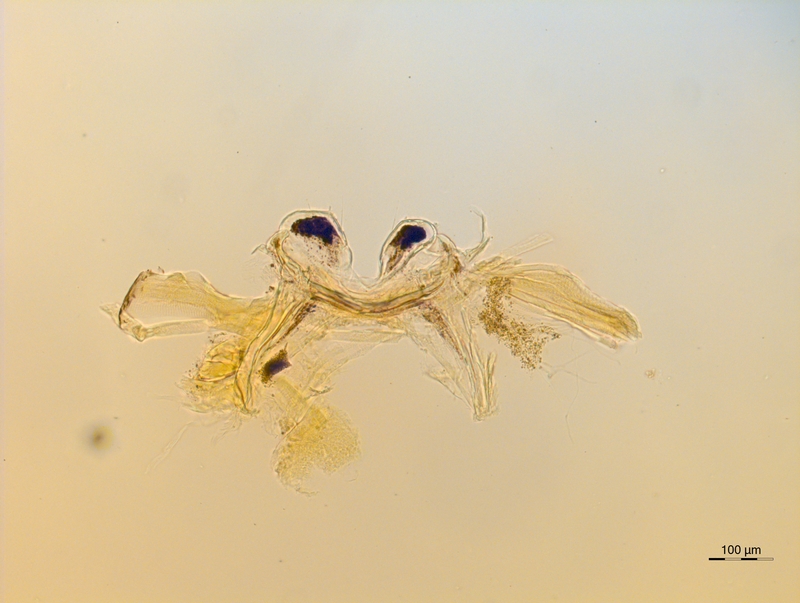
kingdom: Animalia
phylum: Arthropoda
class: Diplopoda
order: Chordeumatida
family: Craspedosomatidae
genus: Rothenbuehleria
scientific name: Rothenbuehleria tirolense
